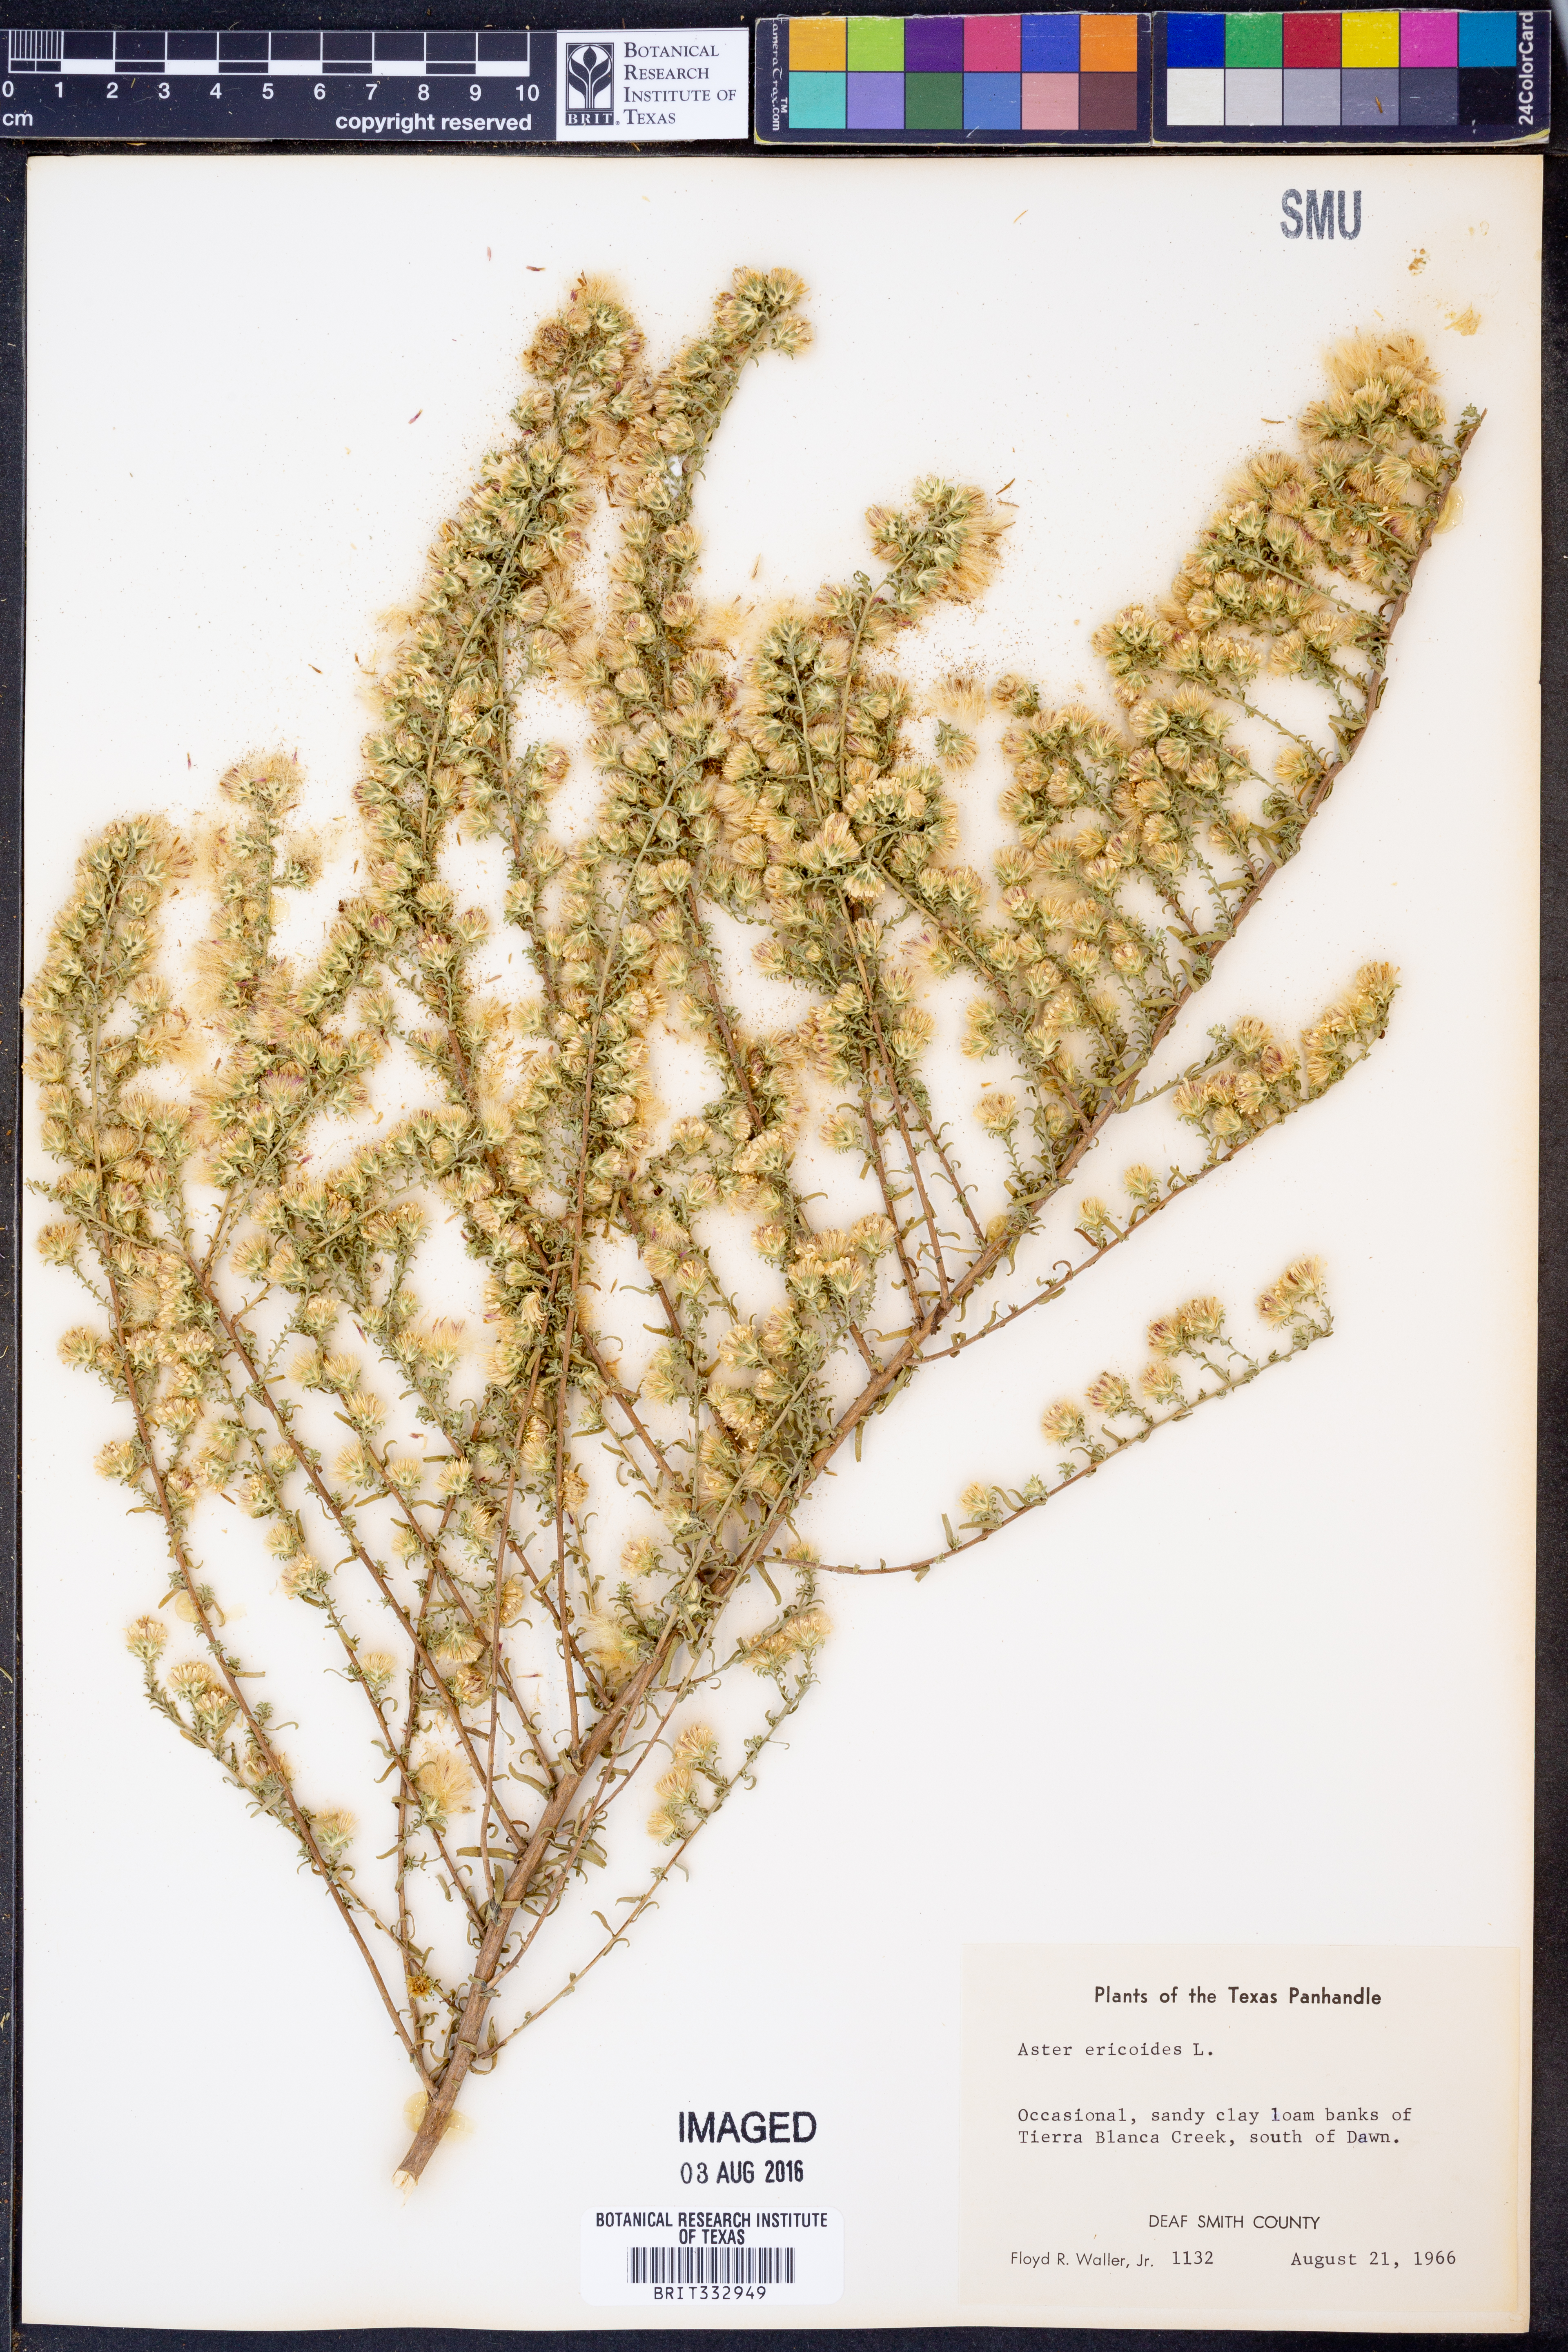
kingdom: Plantae
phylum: Tracheophyta
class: Magnoliopsida
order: Asterales
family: Asteraceae
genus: Symphyotrichum
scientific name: Symphyotrichum ericoides
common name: Heath aster
